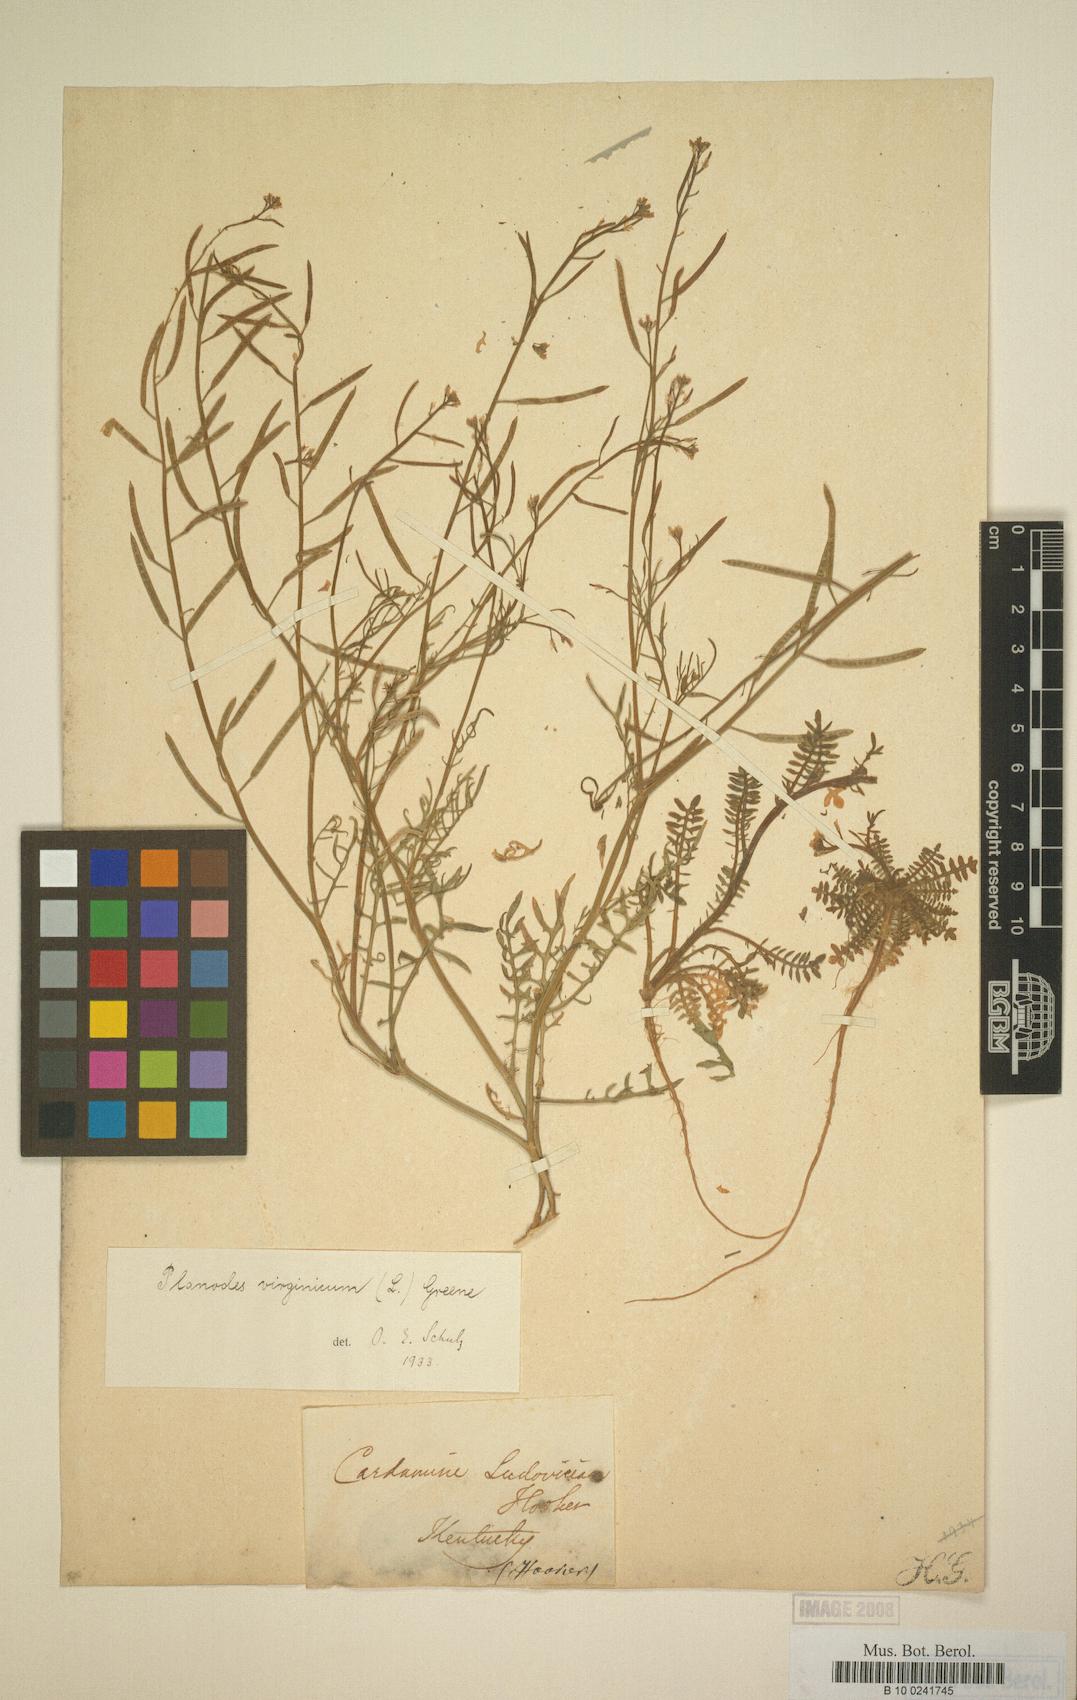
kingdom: Plantae
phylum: Tracheophyta
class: Magnoliopsida
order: Brassicales
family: Brassicaceae
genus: Planodes
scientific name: Planodes virginicum
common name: Virginia cress
